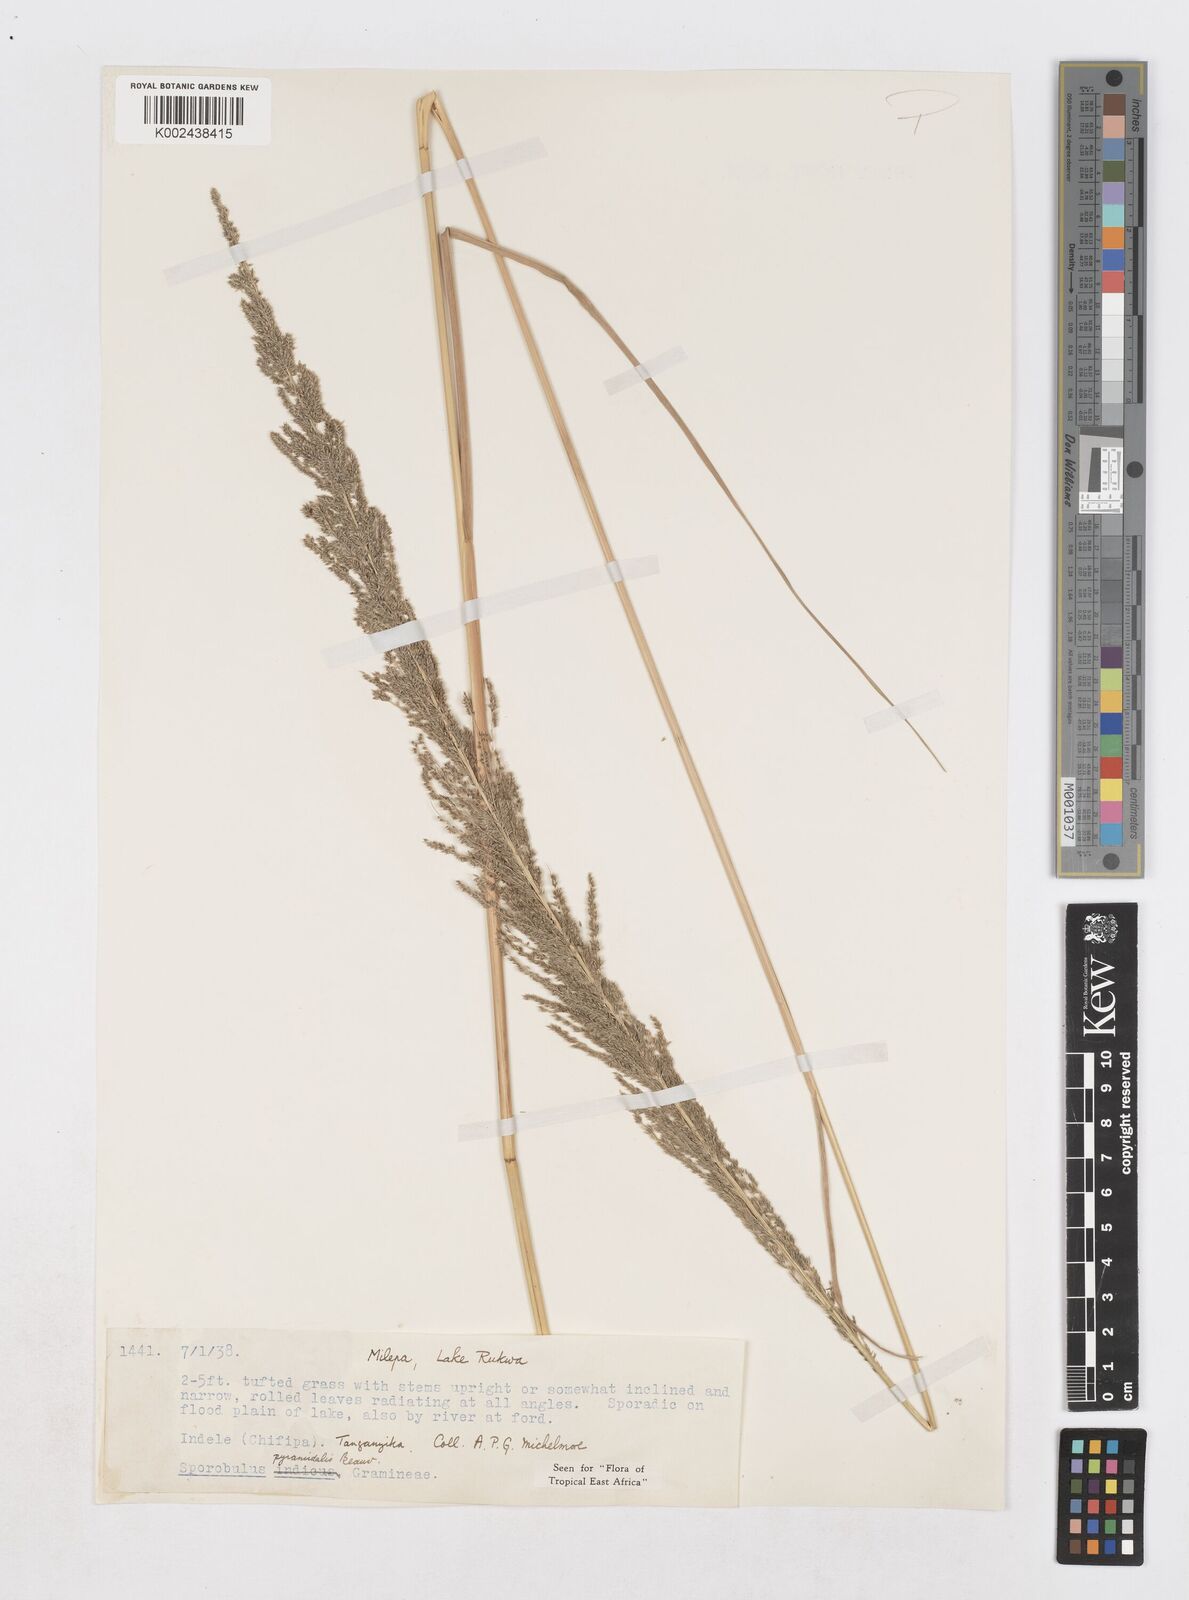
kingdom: Plantae
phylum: Tracheophyta
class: Liliopsida
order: Poales
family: Poaceae
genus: Sporobolus
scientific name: Sporobolus pyramidalis
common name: West indian dropseed
